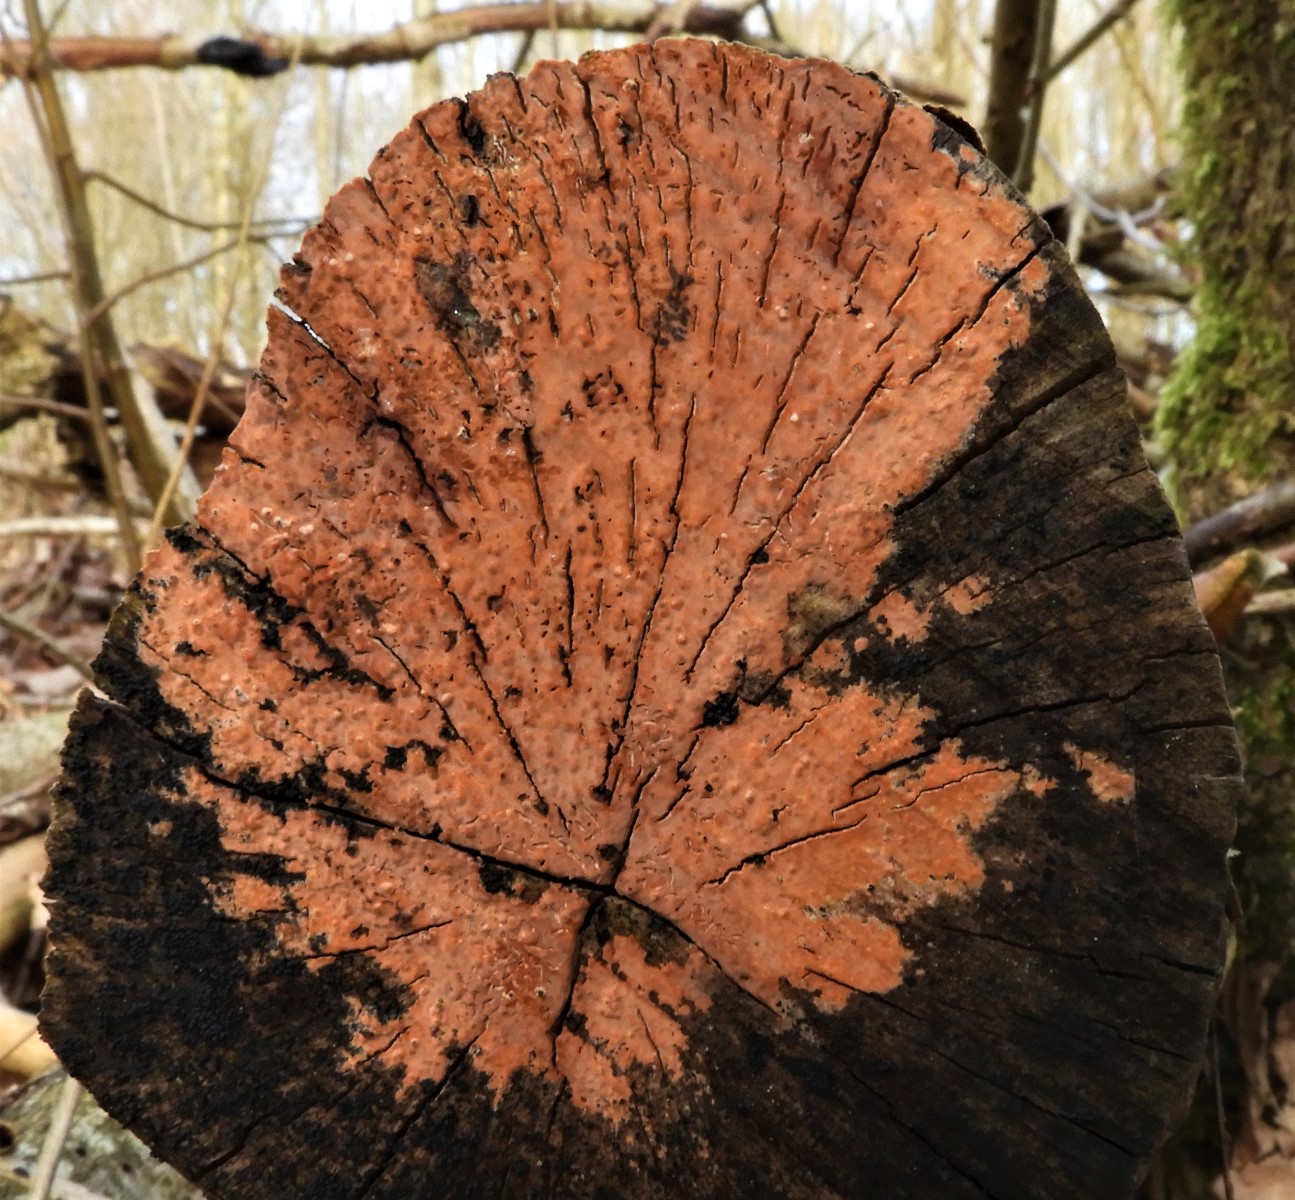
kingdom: Fungi
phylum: Basidiomycota
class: Agaricomycetes
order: Russulales
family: Peniophoraceae
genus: Peniophora
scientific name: Peniophora incarnata
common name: laksefarvet voksskind
